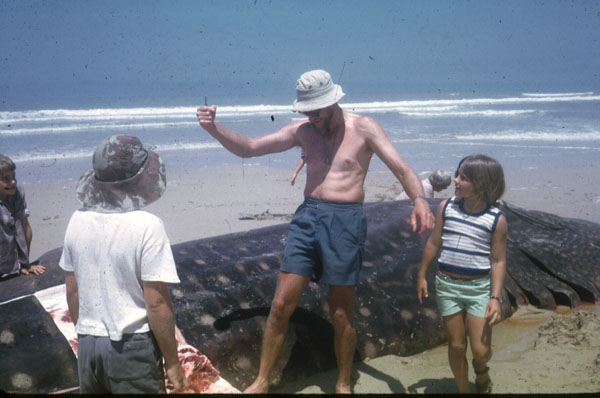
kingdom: Animalia
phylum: Chordata
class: Elasmobranchii
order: Orectolobiformes
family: Rhincodontidae
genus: Rhincodon
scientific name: Rhincodon typus
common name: Whale shark
